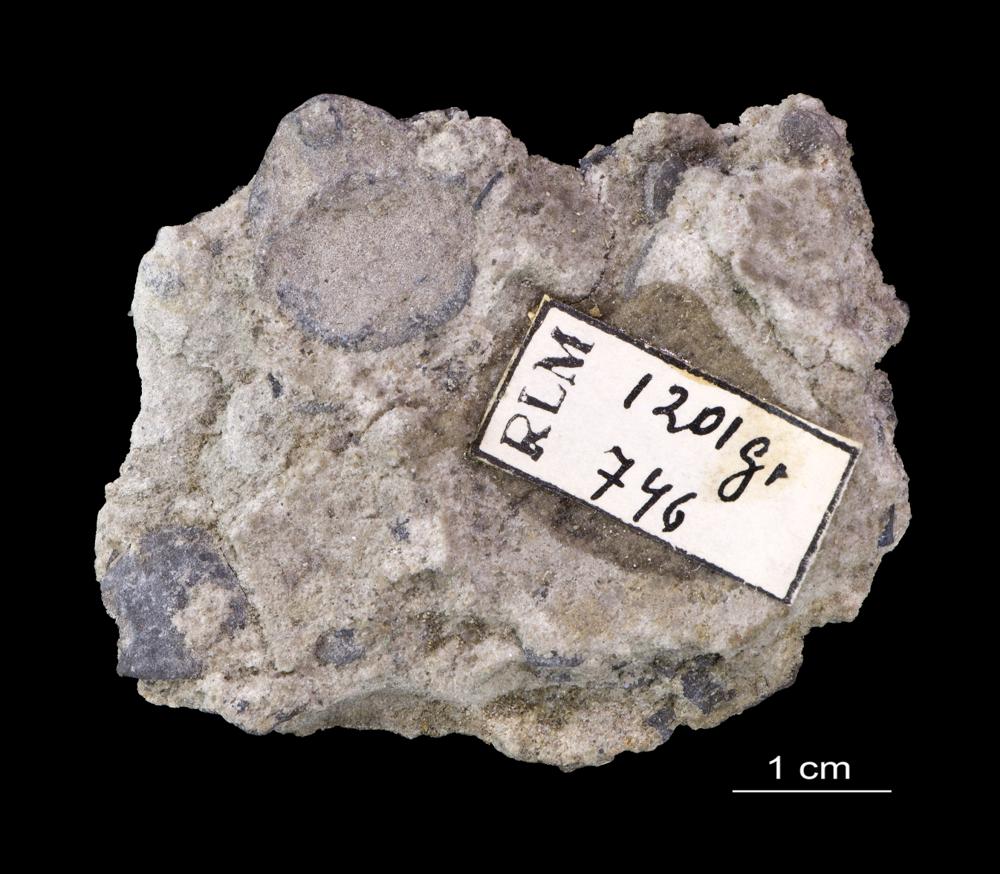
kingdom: Animalia
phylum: Brachiopoda
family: Paterinidae
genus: Mickwitzia
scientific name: Mickwitzia
